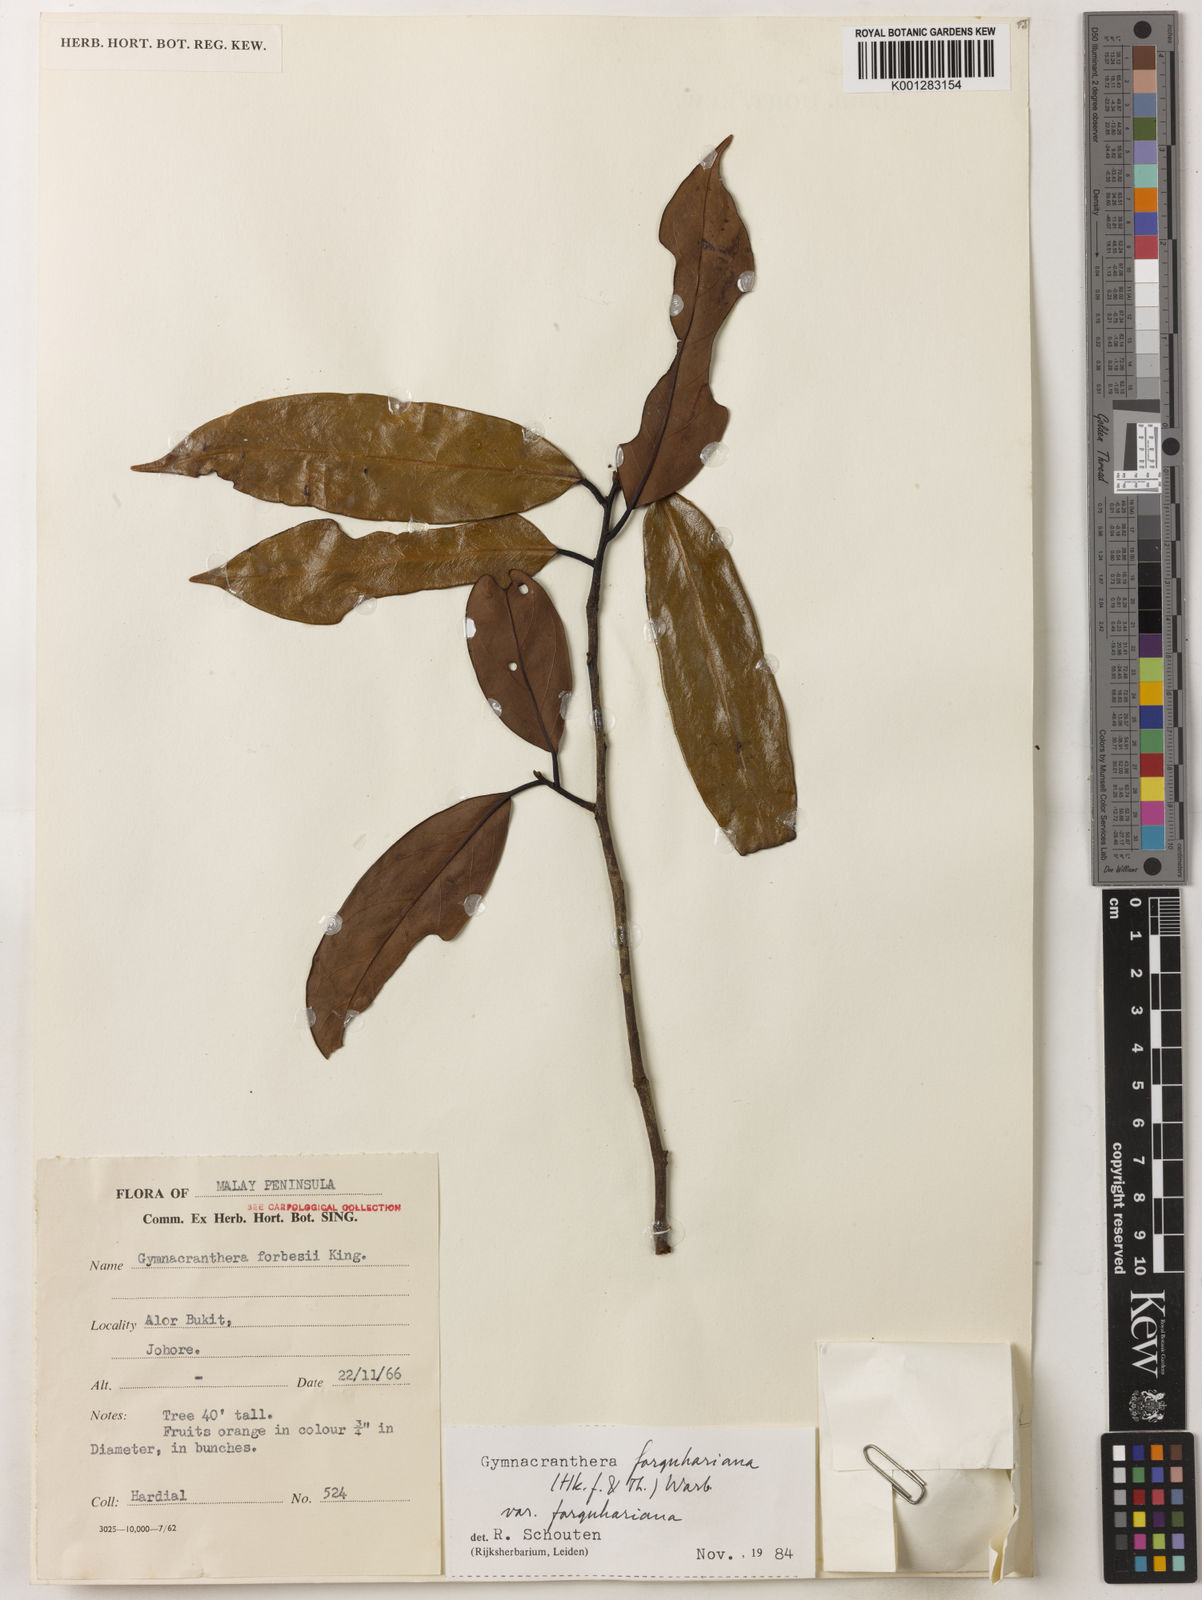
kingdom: Plantae
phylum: Tracheophyta
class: Magnoliopsida
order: Magnoliales
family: Myristicaceae
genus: Gymnacranthera
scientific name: Gymnacranthera farquhariana
